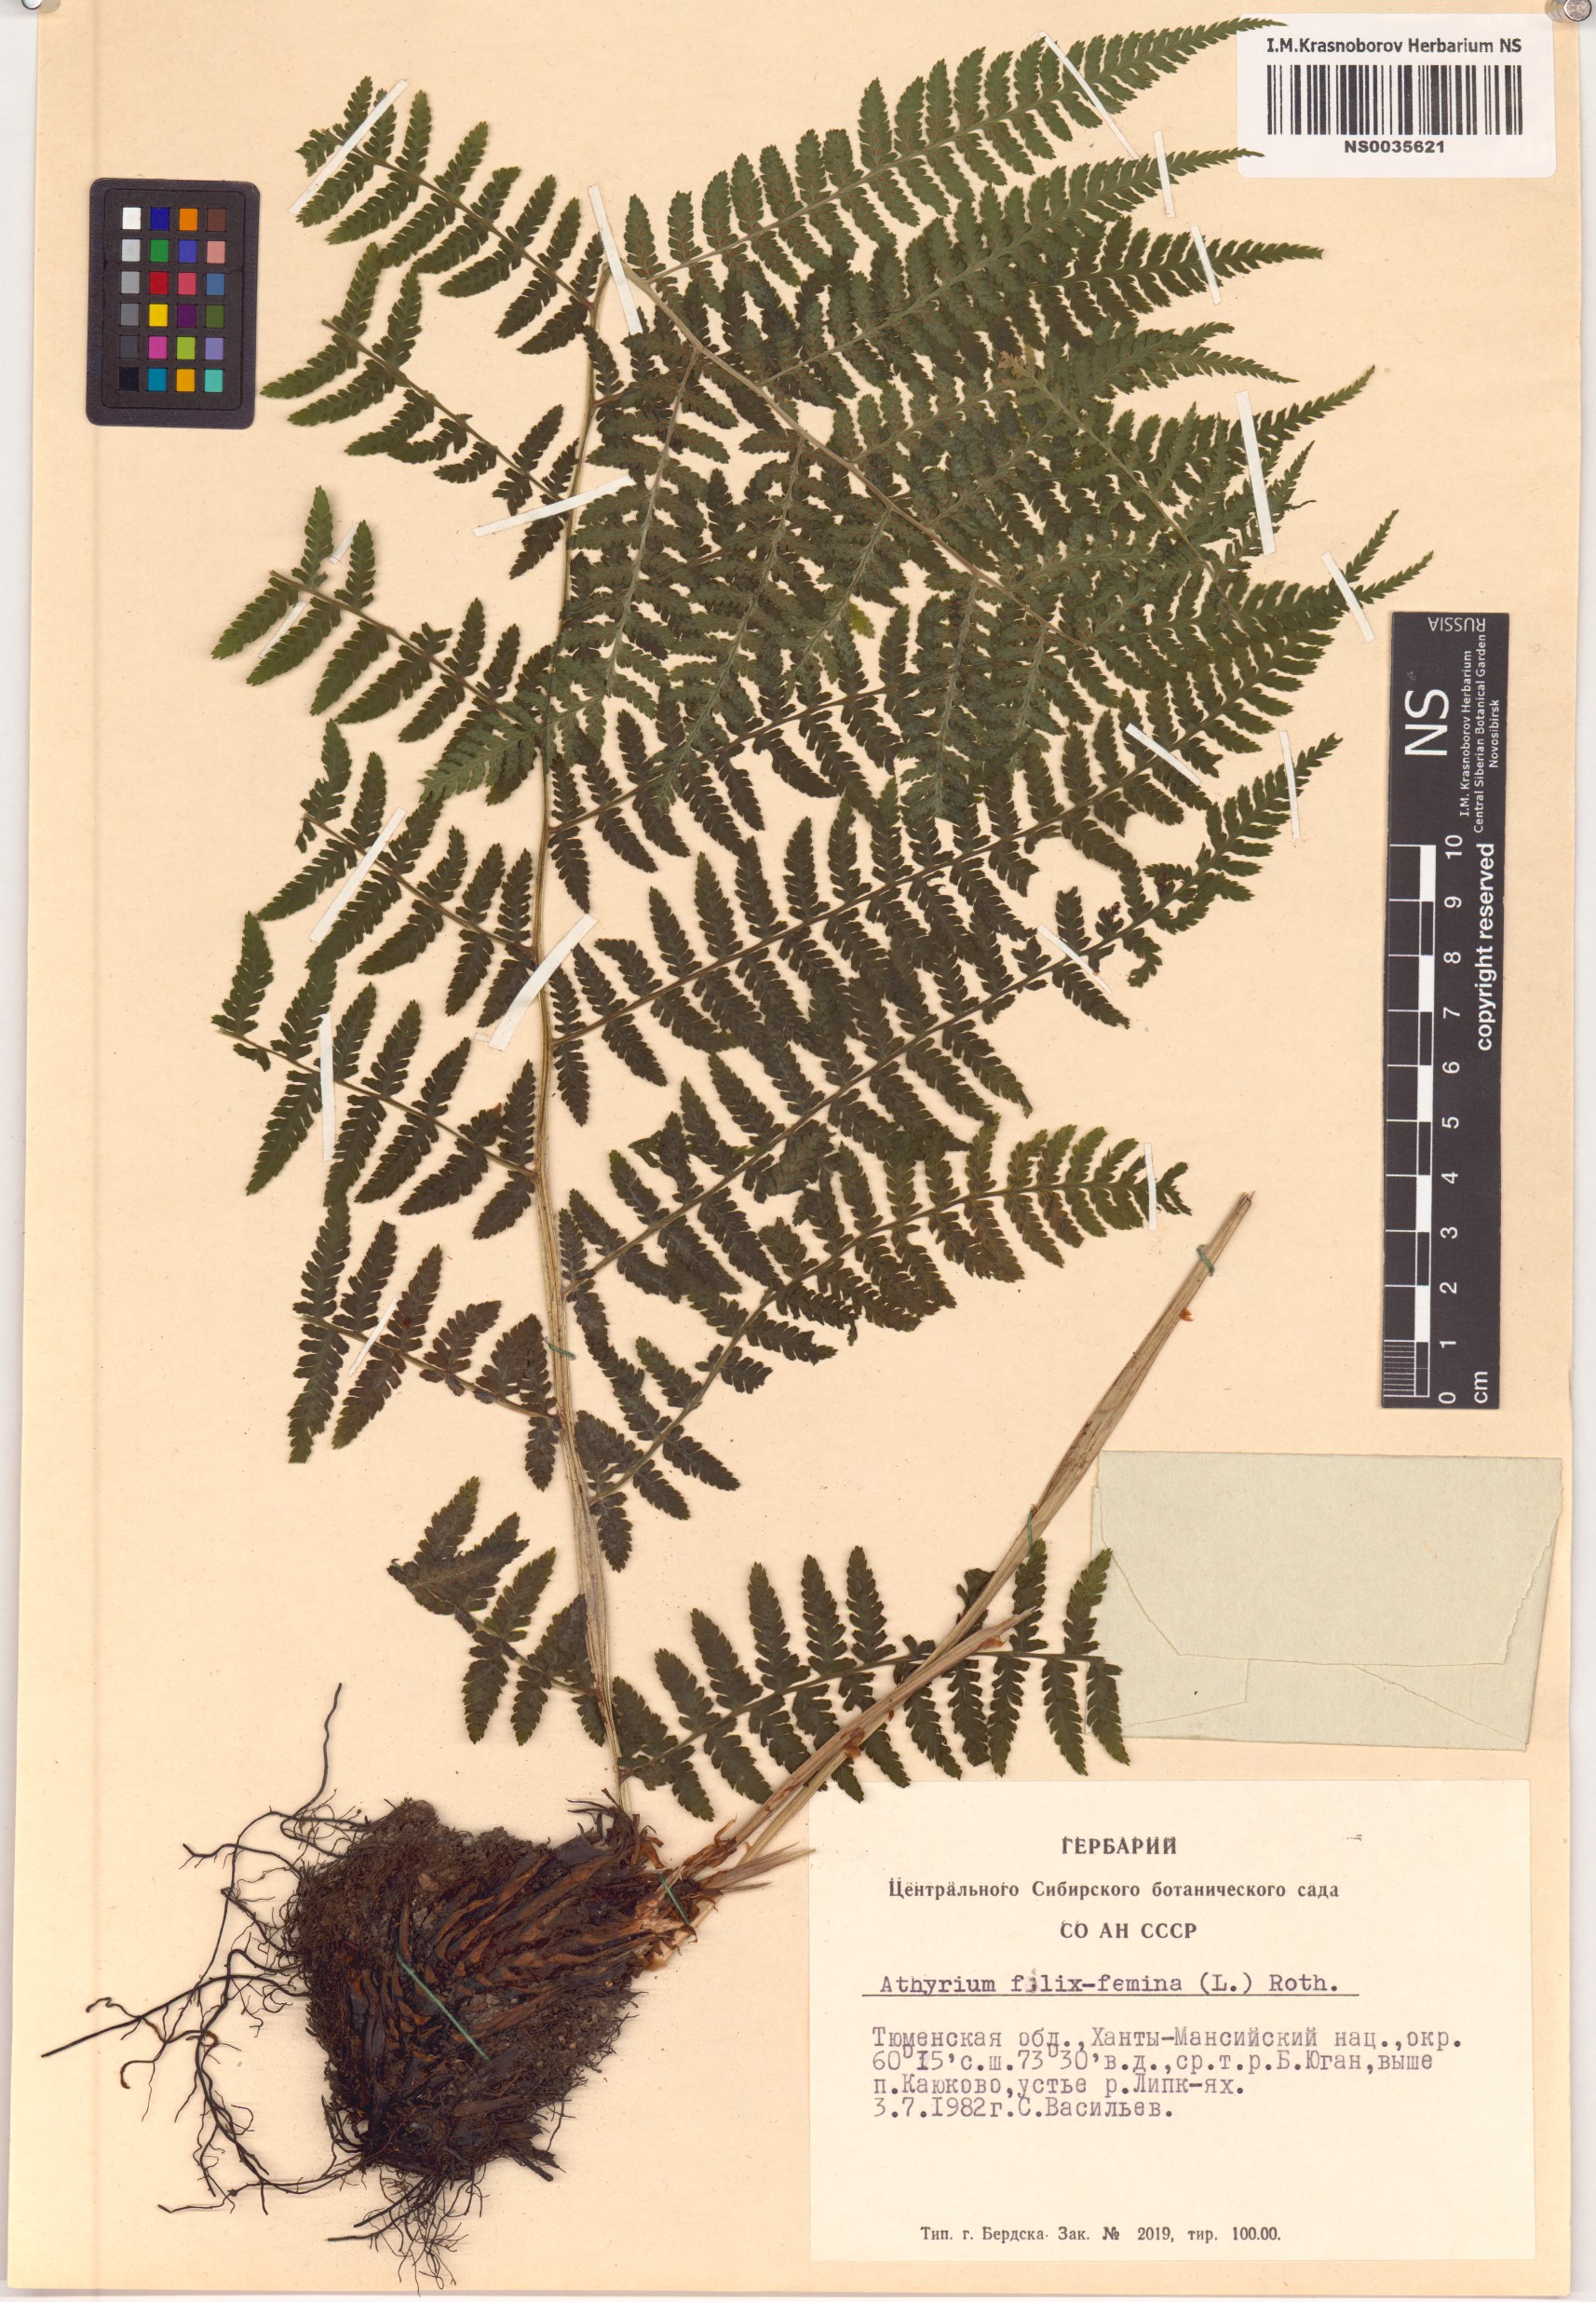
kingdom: Plantae
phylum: Tracheophyta
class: Polypodiopsida
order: Polypodiales
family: Athyriaceae
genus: Athyrium
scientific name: Athyrium filix-femina
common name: Lady fern
